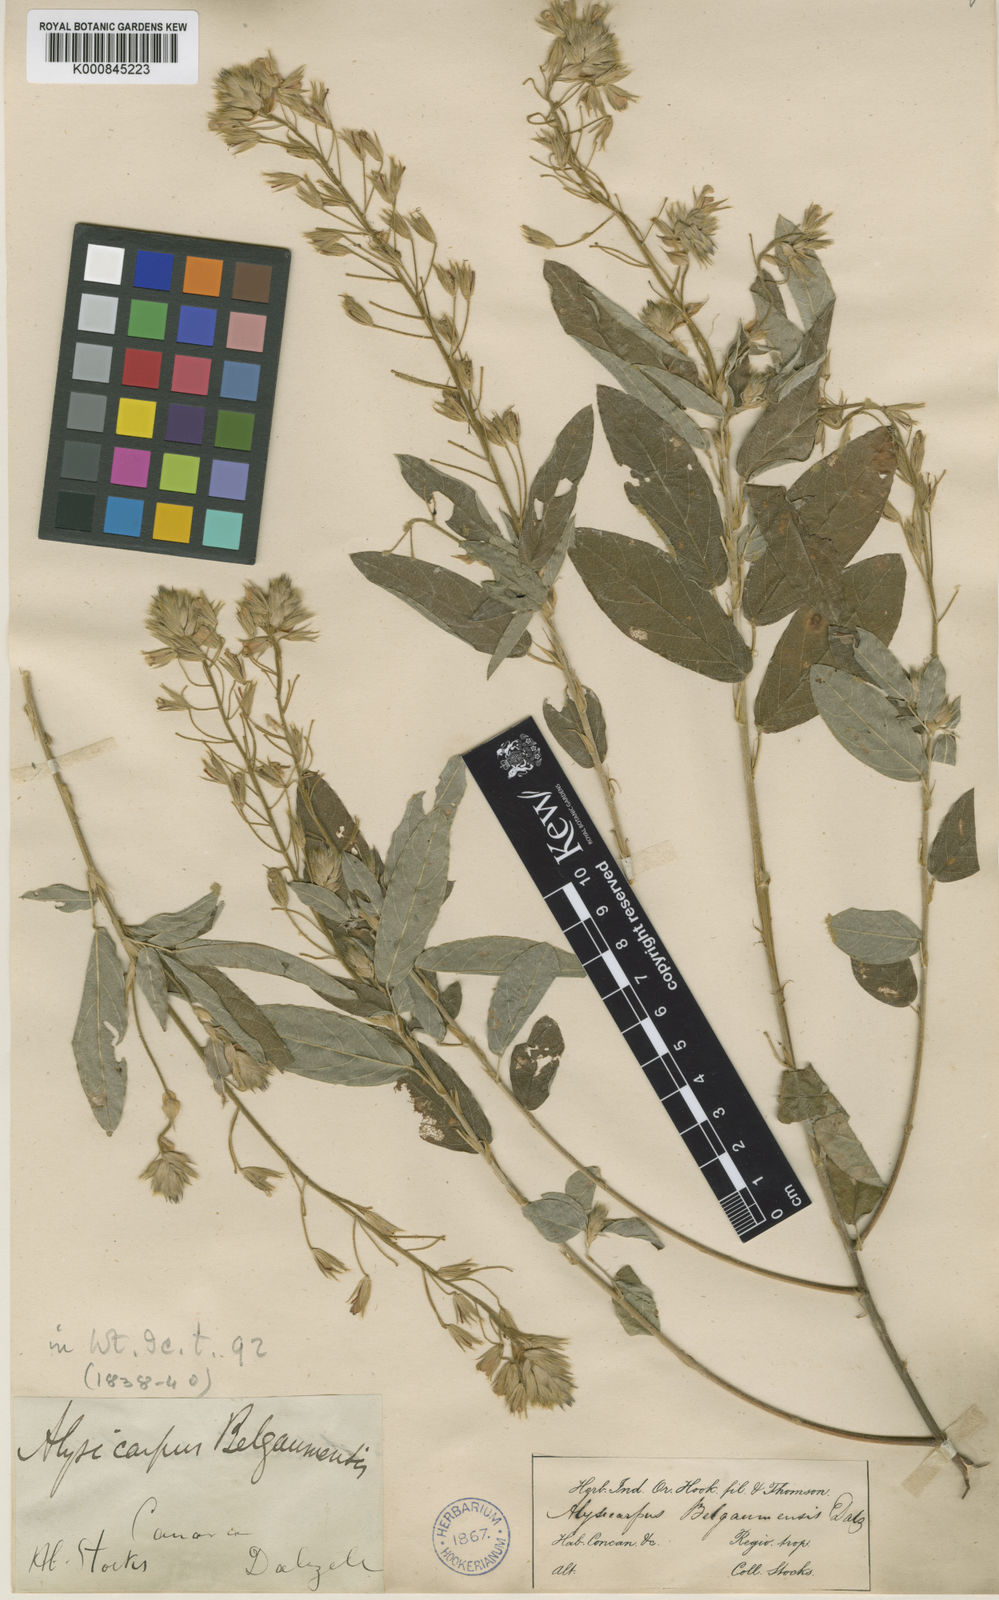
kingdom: Plantae
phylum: Tracheophyta
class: Magnoliopsida
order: Fabales
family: Fabaceae
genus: Alysicarpus
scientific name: Alysicarpus belgaumensis
